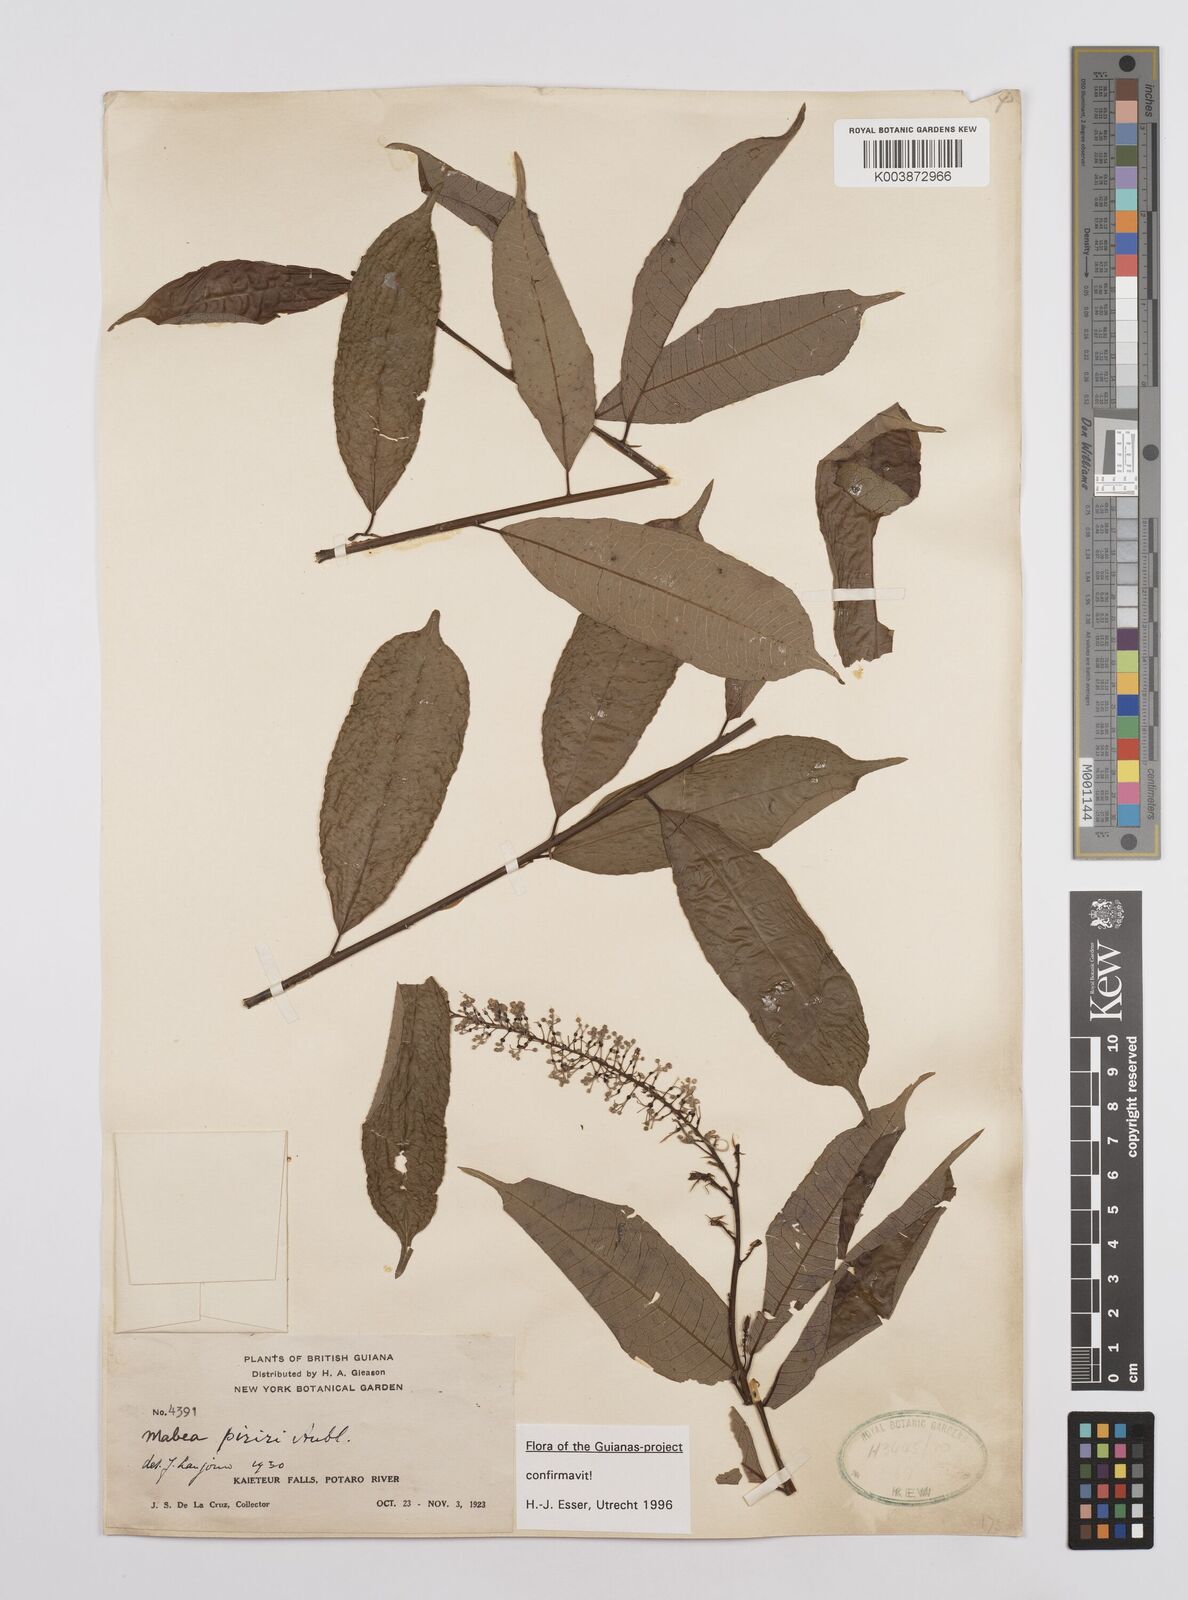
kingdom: Plantae
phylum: Tracheophyta
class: Magnoliopsida
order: Malpighiales
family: Euphorbiaceae
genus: Mabea
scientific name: Mabea piriri
